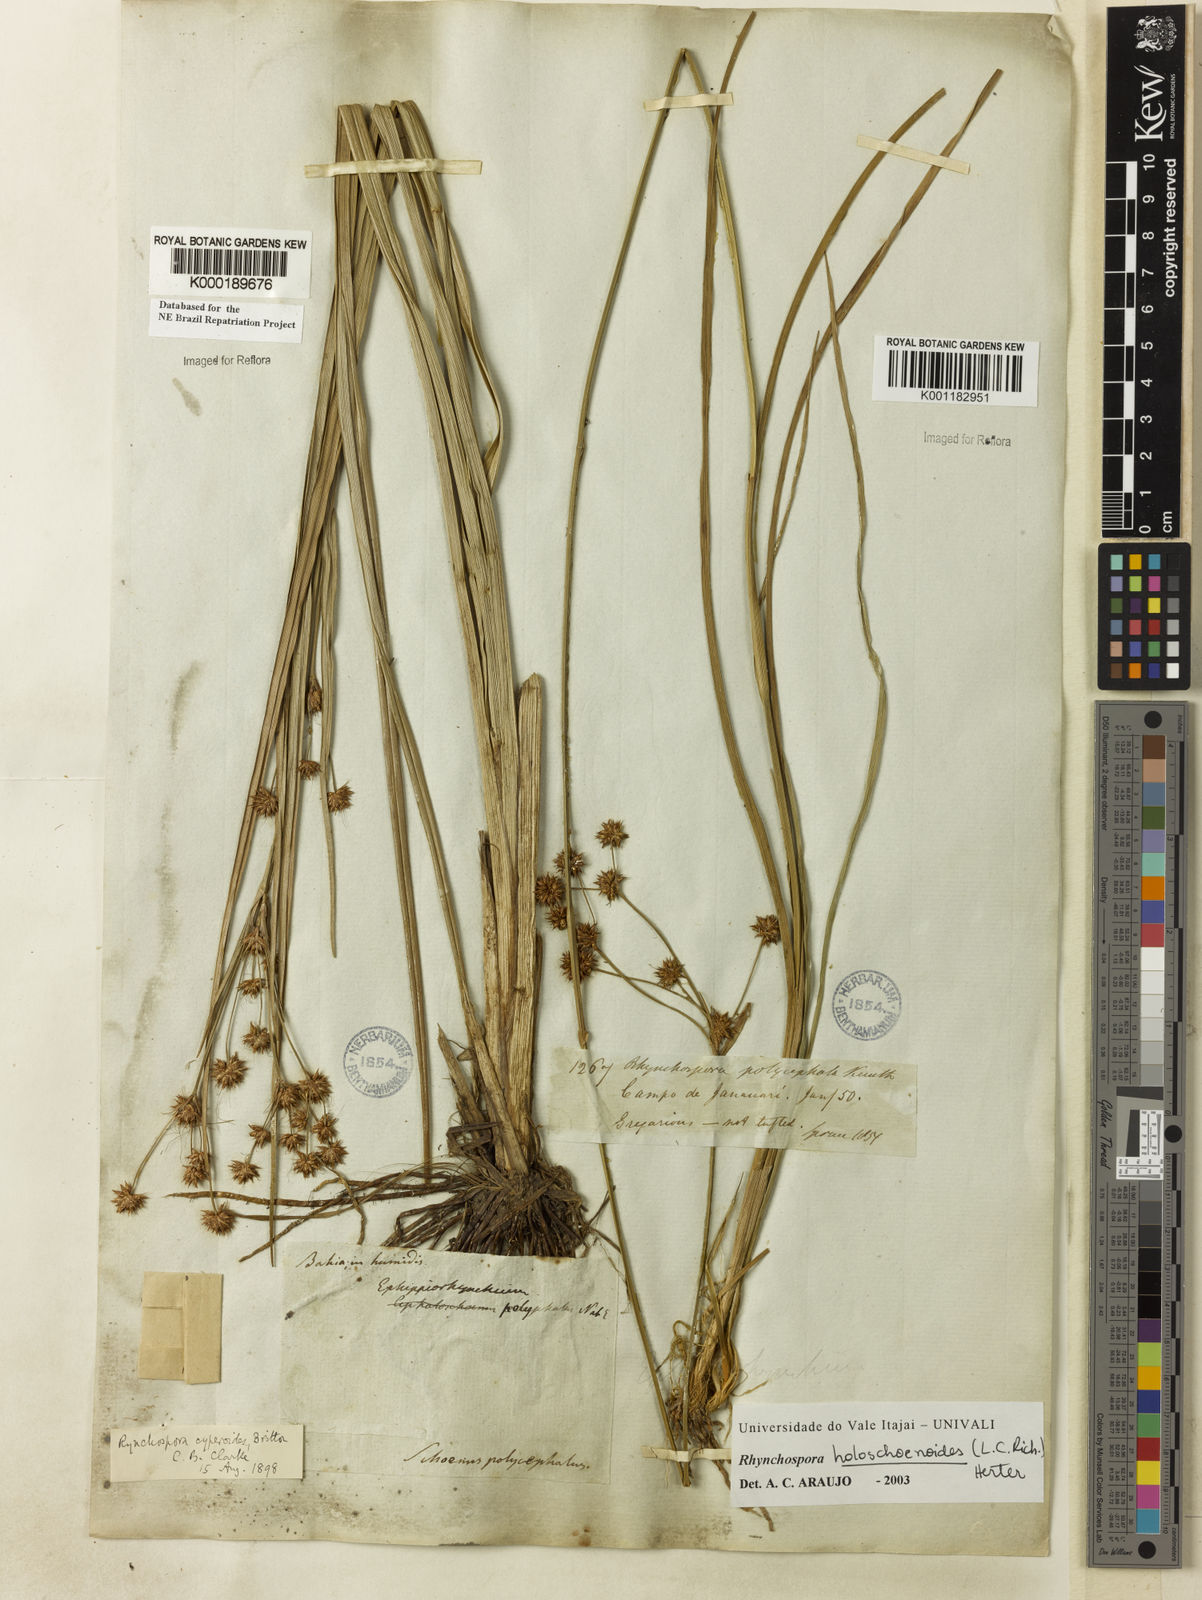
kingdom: Plantae
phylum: Tracheophyta
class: Liliopsida
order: Poales
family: Cyperaceae
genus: Rhynchospora
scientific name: Rhynchospora holoschoenoides
